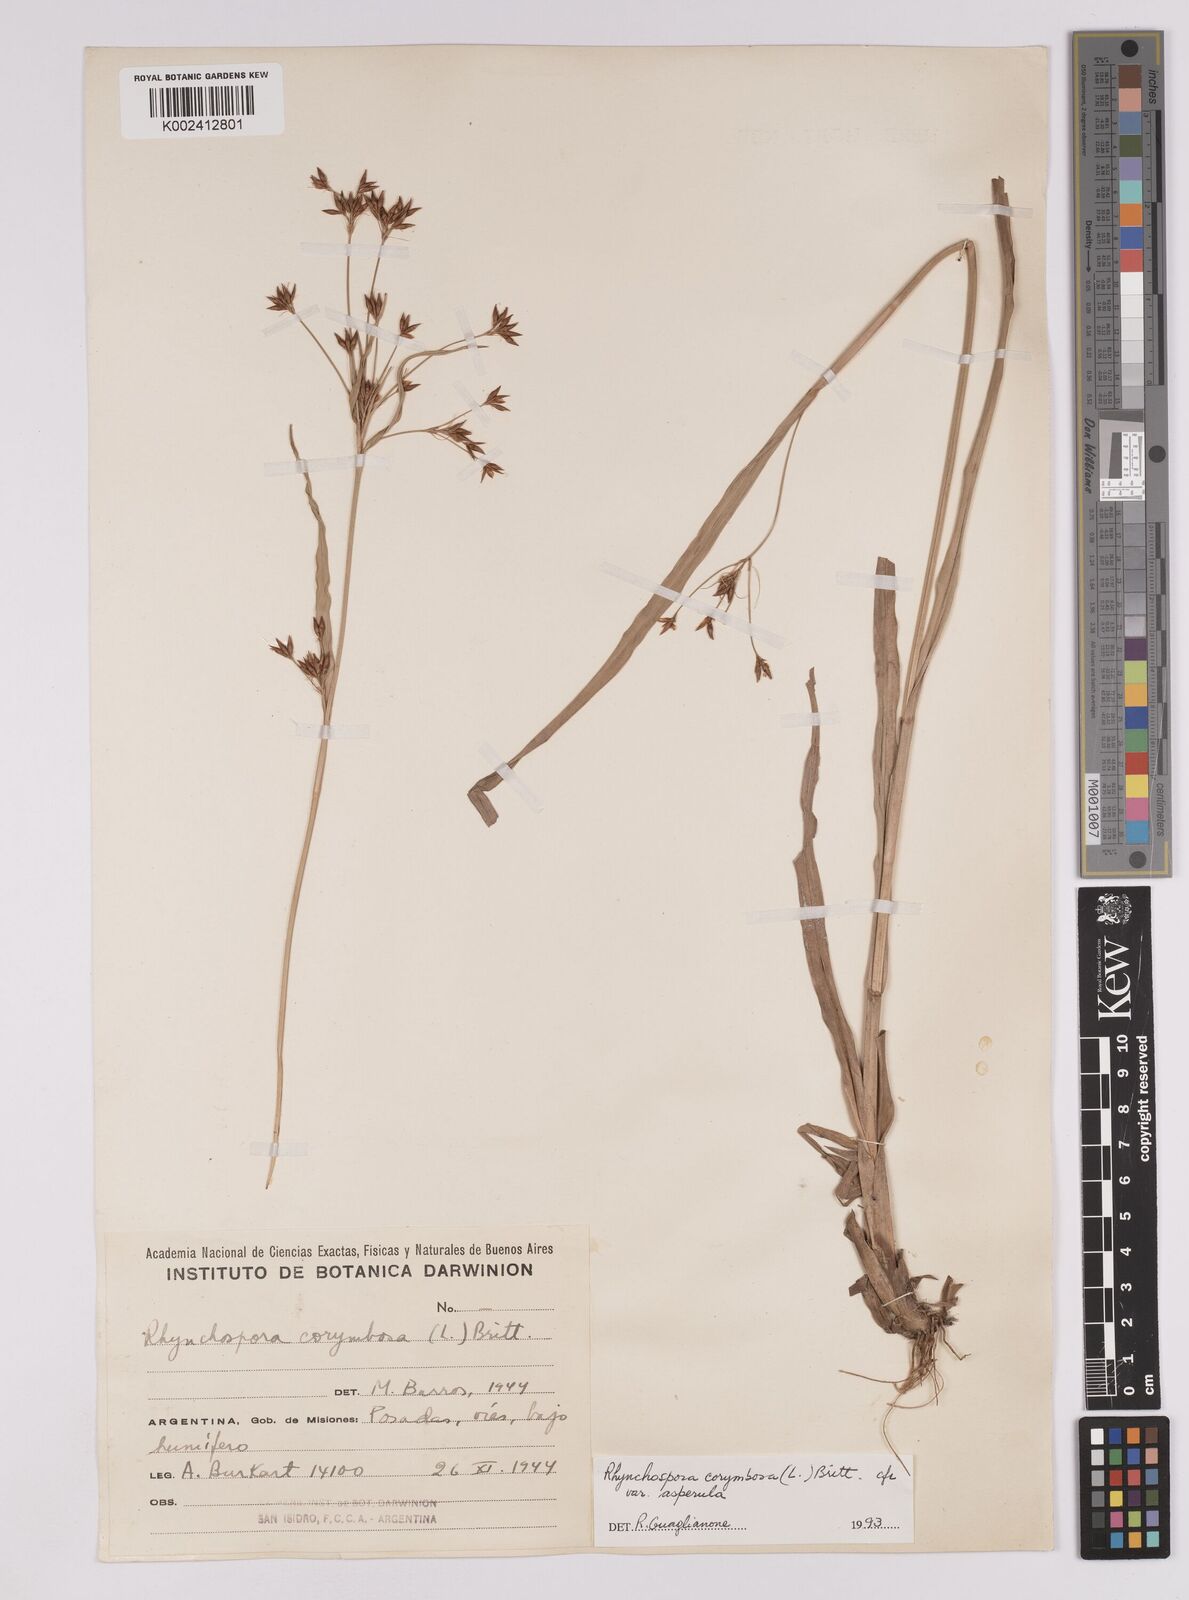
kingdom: Plantae
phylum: Tracheophyta
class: Liliopsida
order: Poales
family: Cyperaceae
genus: Rhynchospora
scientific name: Rhynchospora corymbosa
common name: Golden beak sedge
